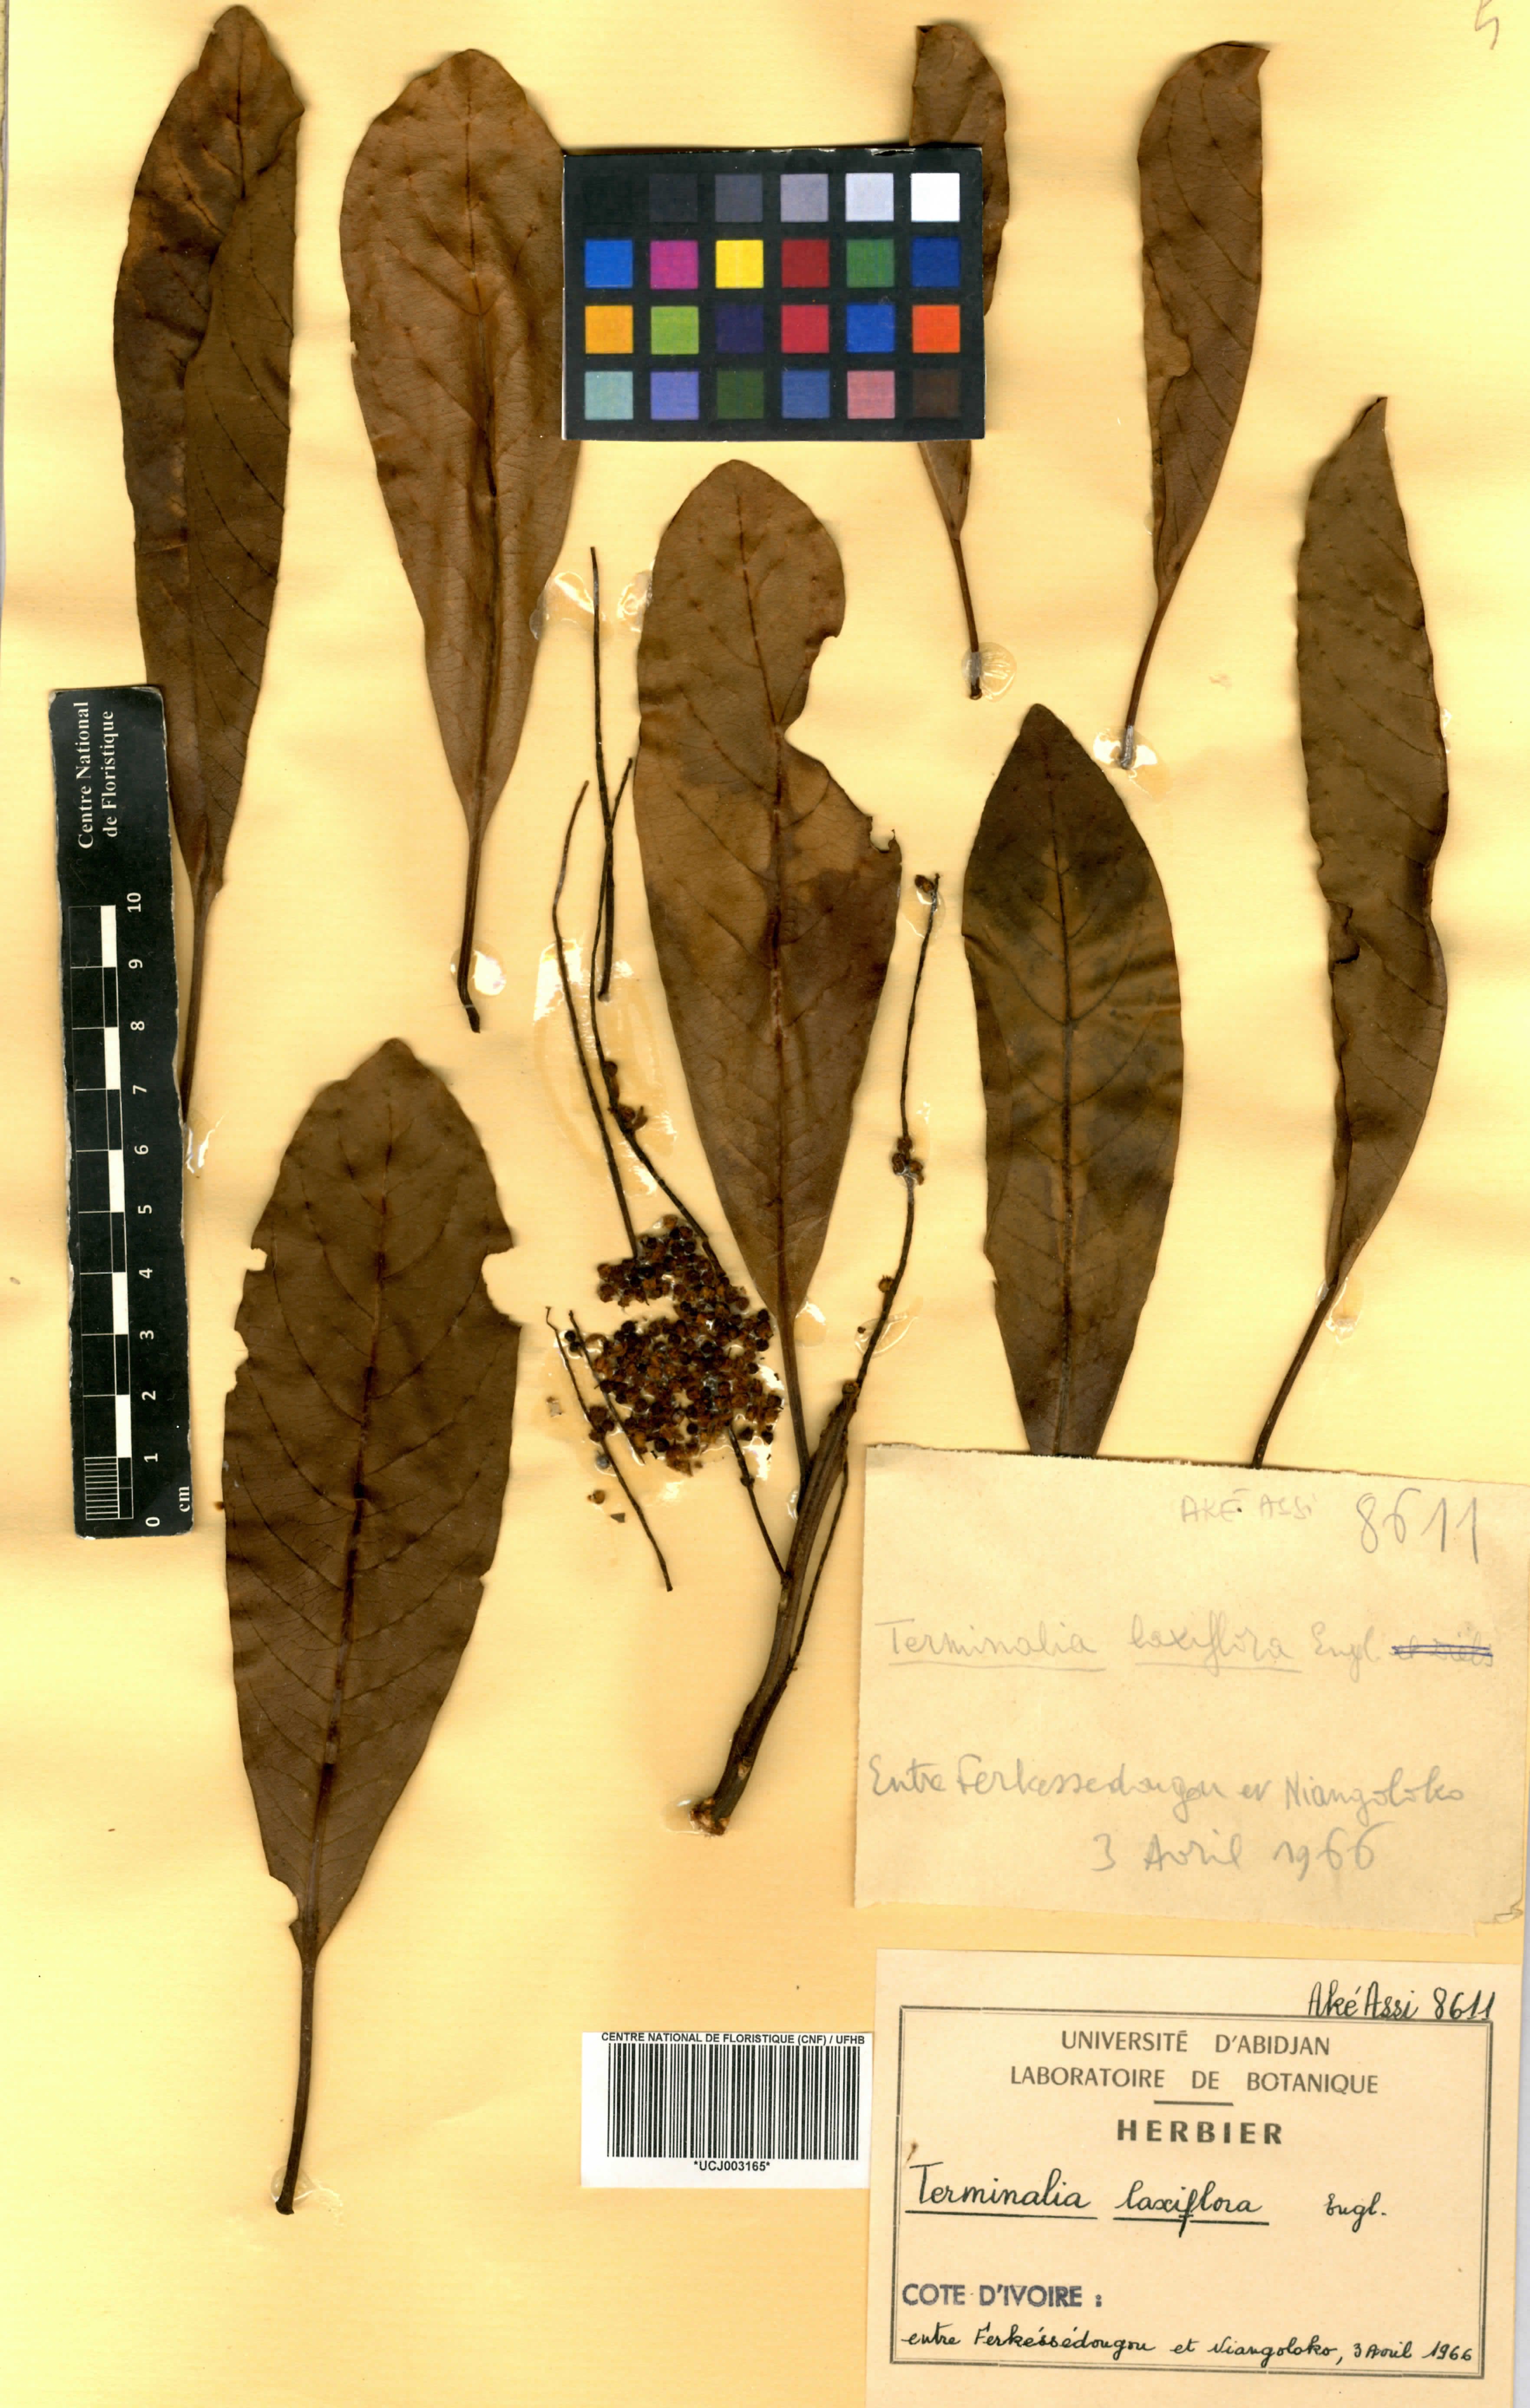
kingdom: Plantae
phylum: Tracheophyta
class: Magnoliopsida
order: Myrtales
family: Combretaceae
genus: Terminalia
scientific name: Terminalia laxiflora
